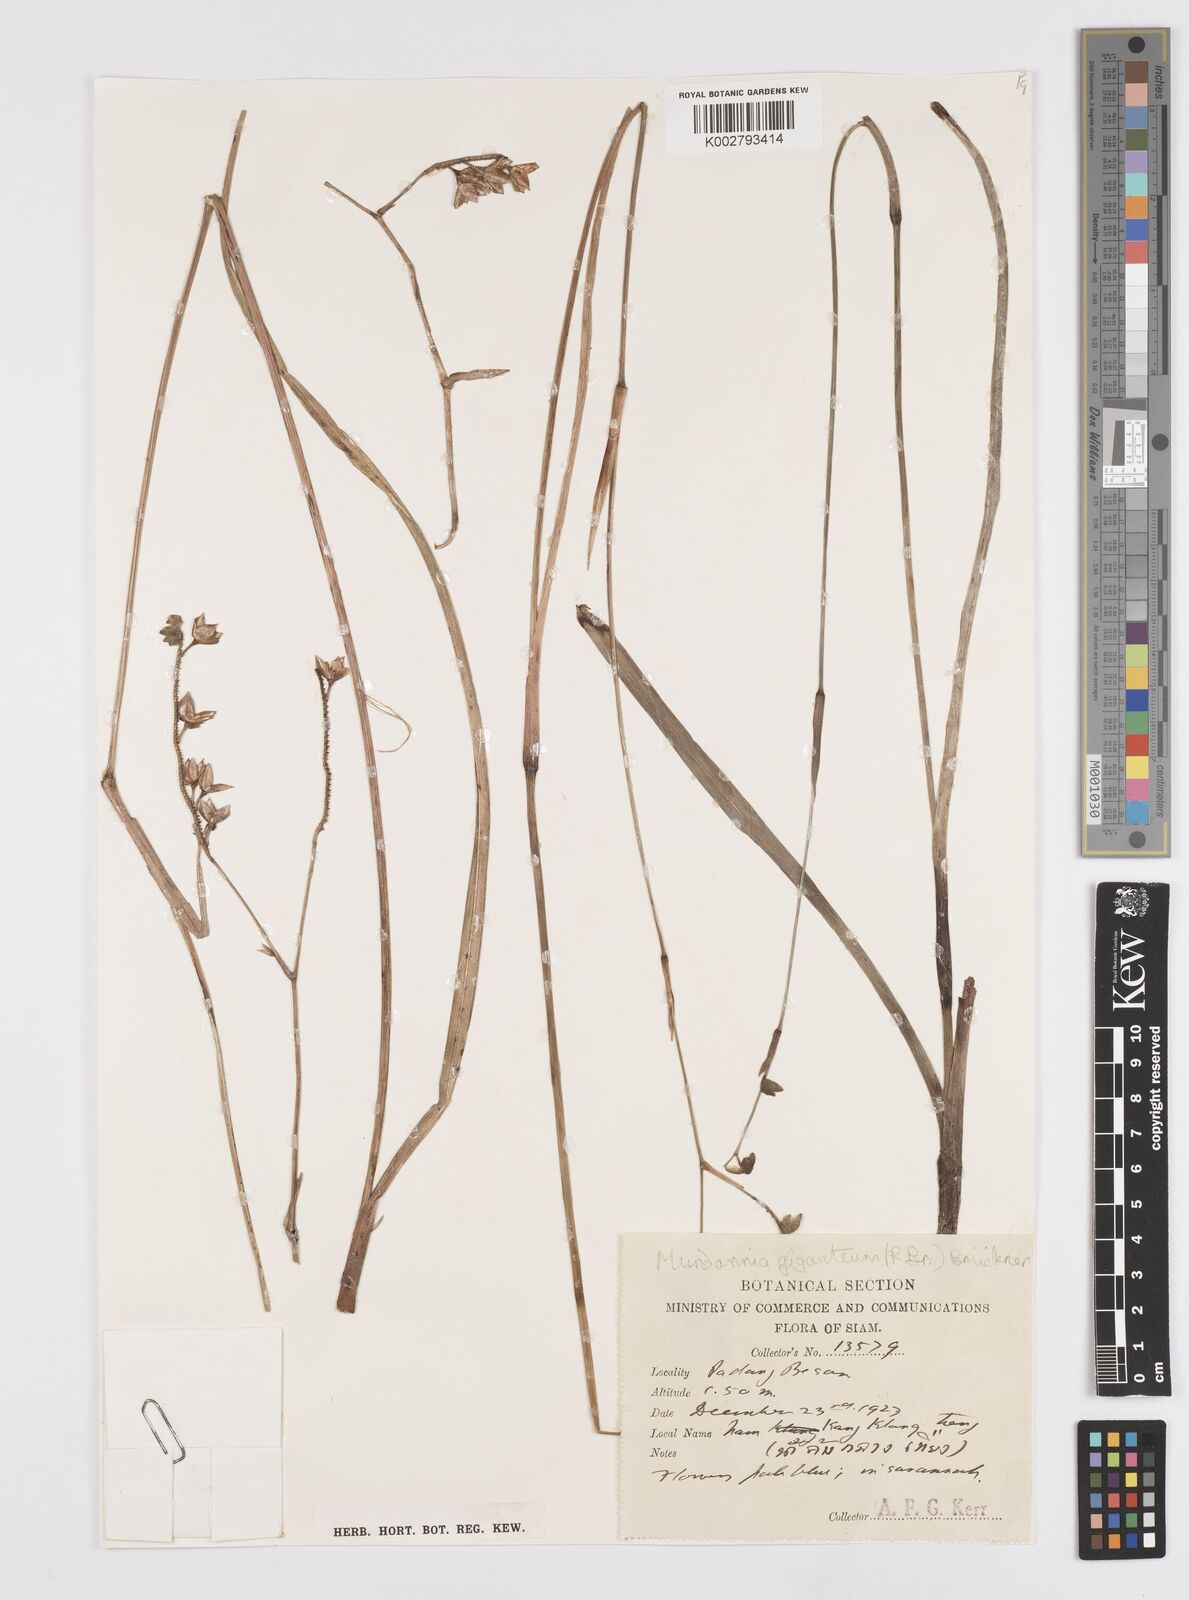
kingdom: Plantae
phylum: Tracheophyta
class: Liliopsida
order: Commelinales
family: Commelinaceae
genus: Murdannia
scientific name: Murdannia gigantea
